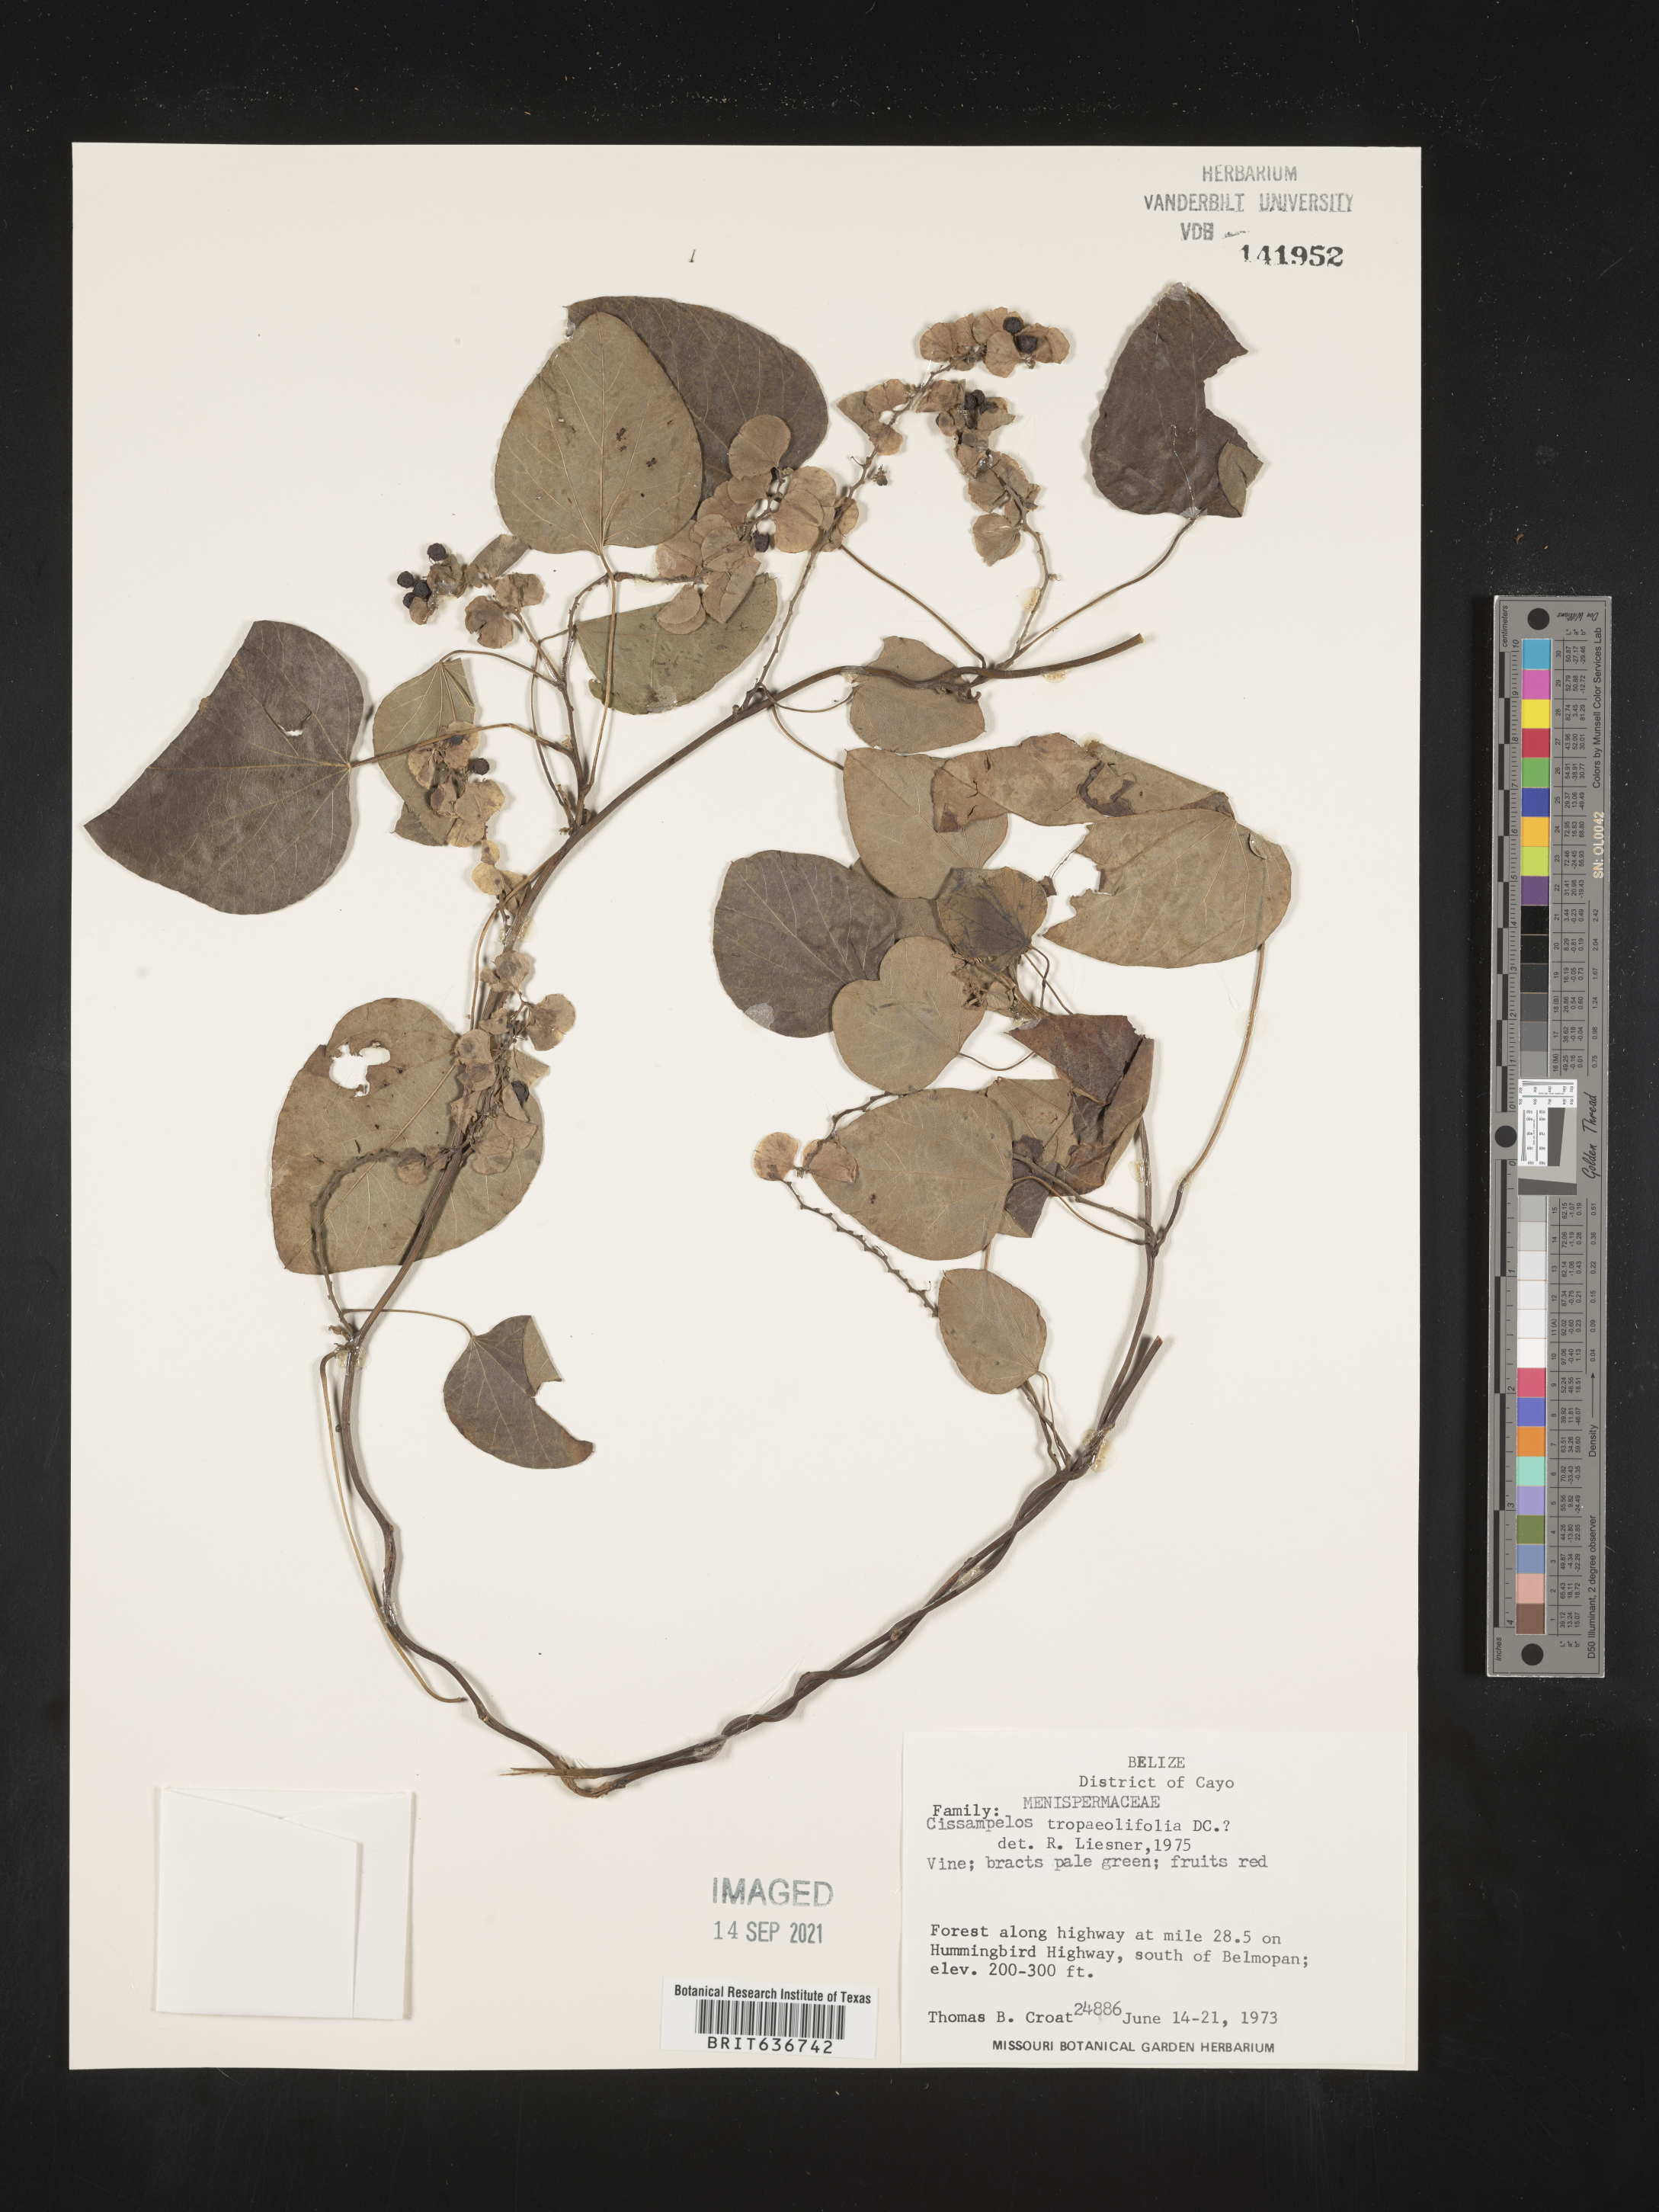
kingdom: Plantae
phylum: Tracheophyta
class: Magnoliopsida
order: Ranunculales
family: Menispermaceae
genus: Cissampelos
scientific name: Cissampelos
